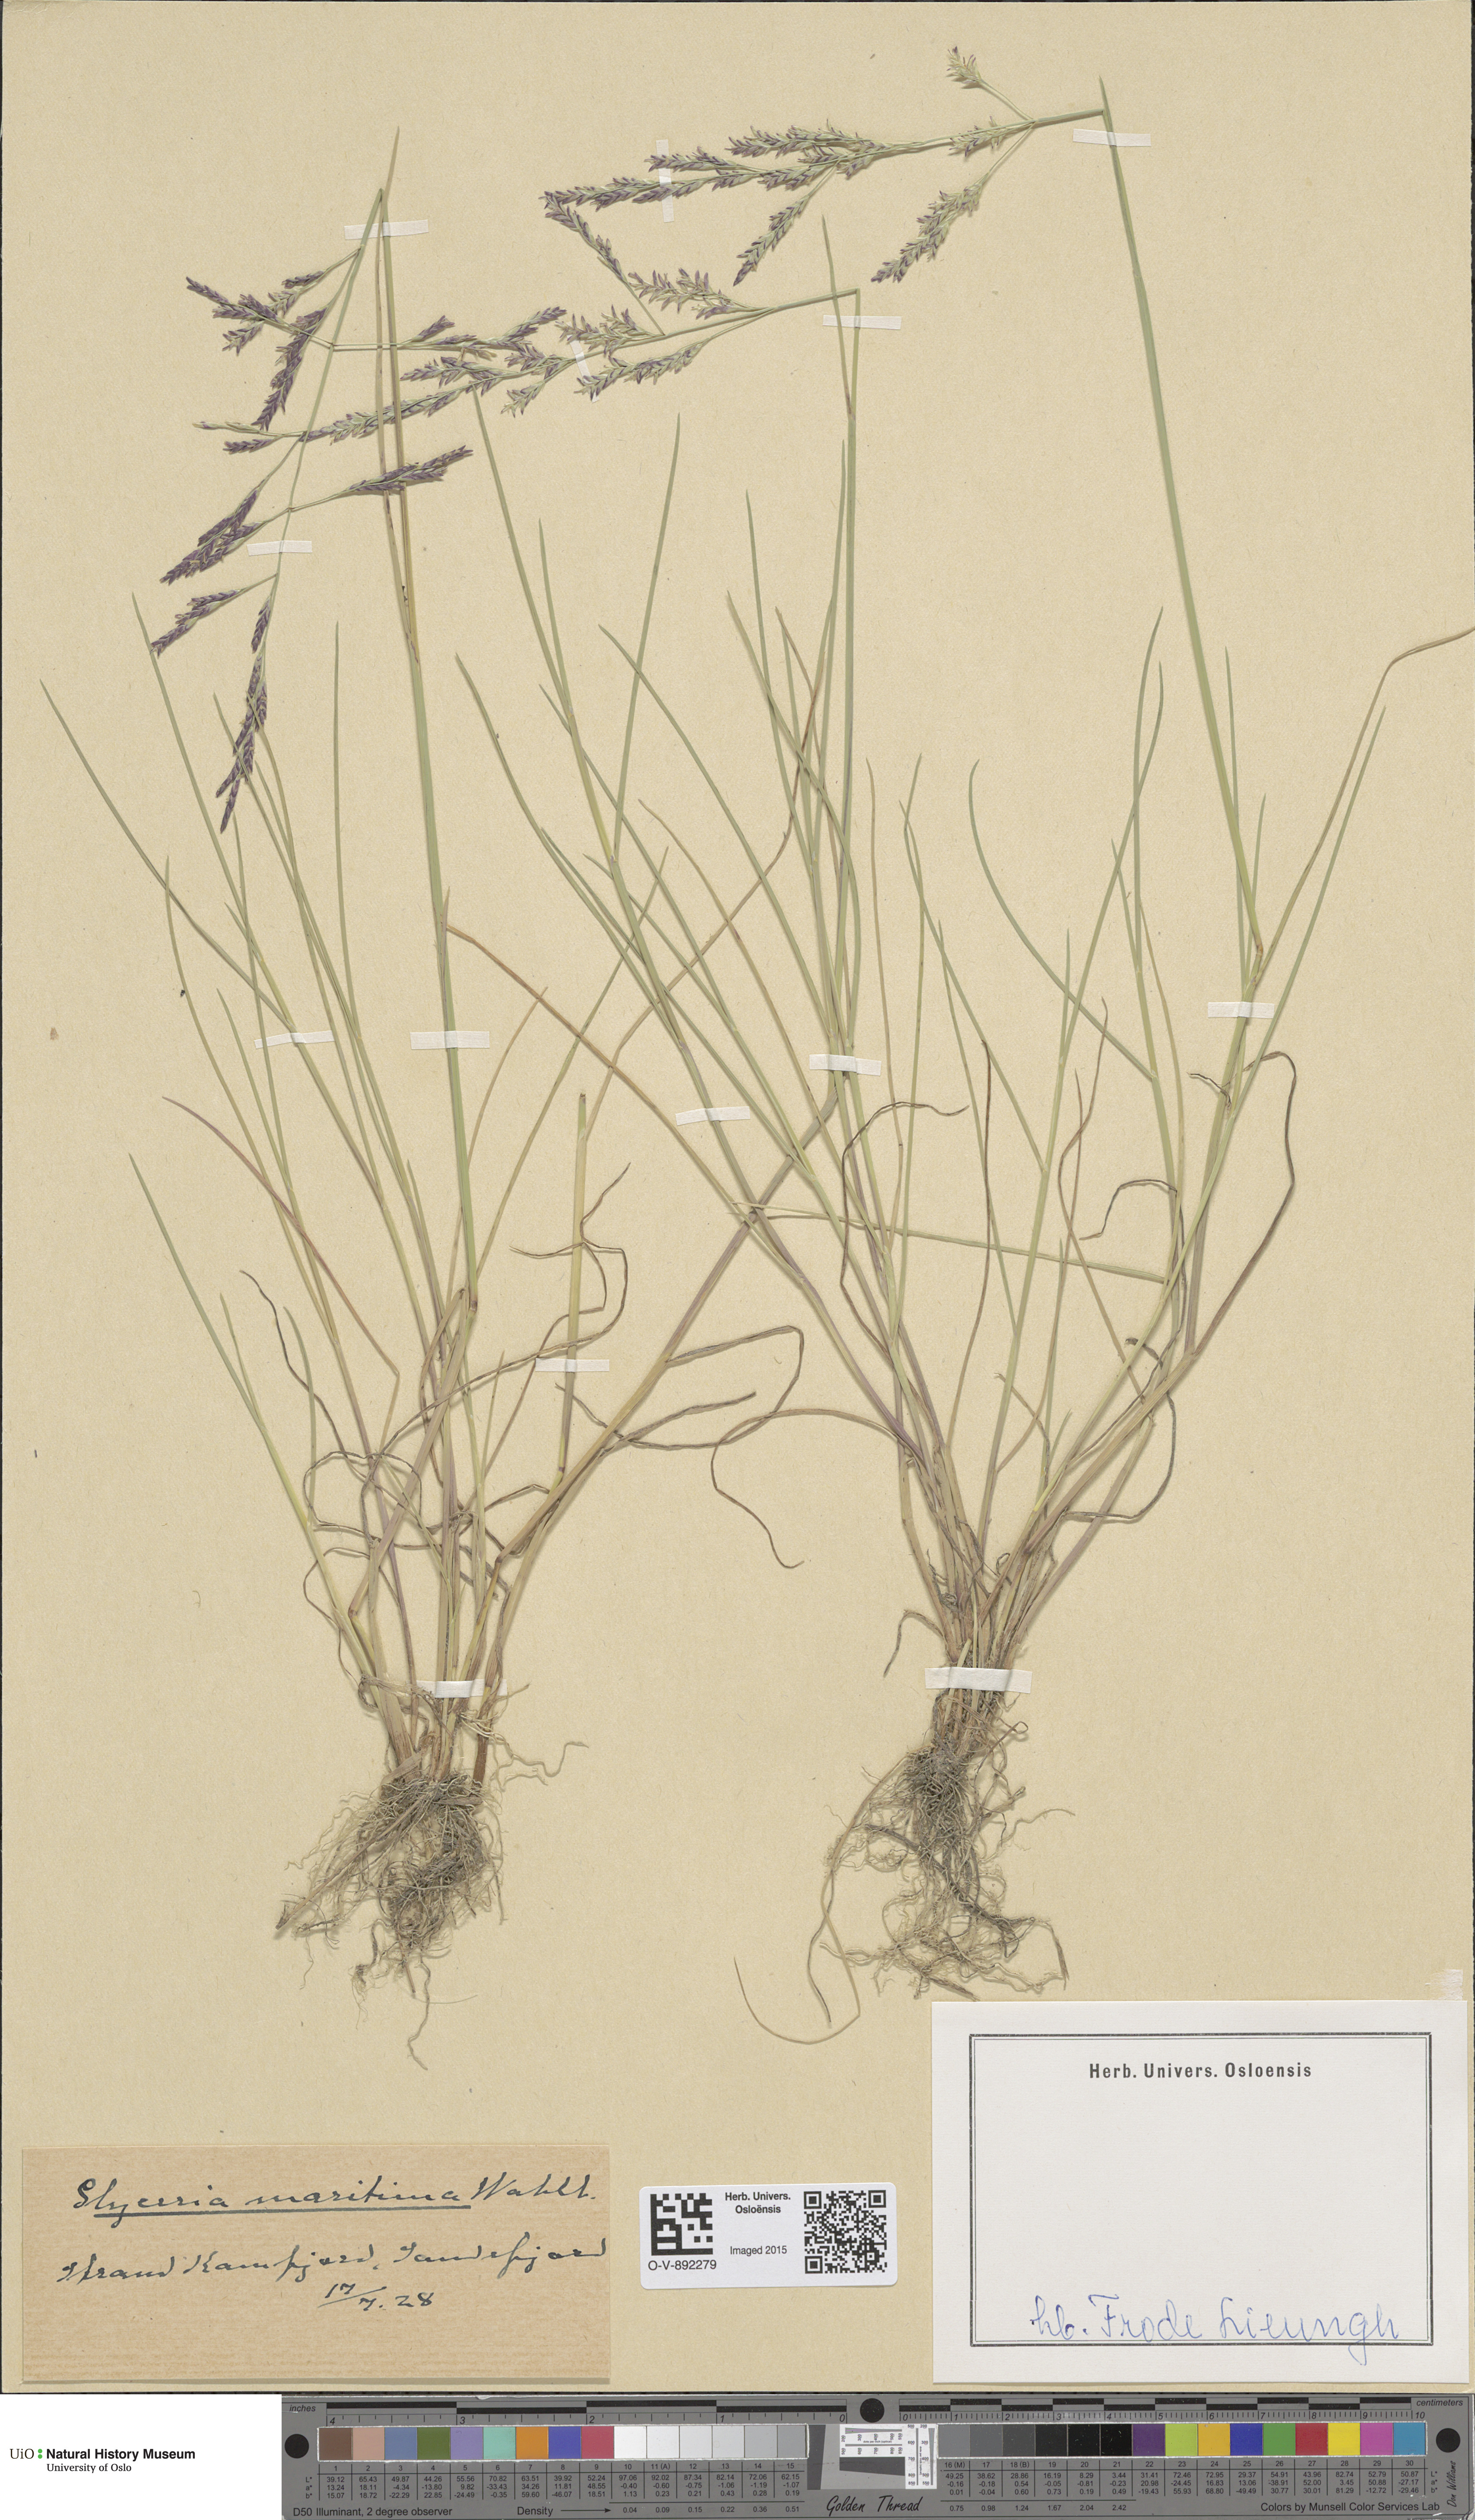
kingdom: Plantae
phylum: Tracheophyta
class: Liliopsida
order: Poales
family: Poaceae
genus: Puccinellia
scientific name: Puccinellia maritima
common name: Common saltmarsh grass
